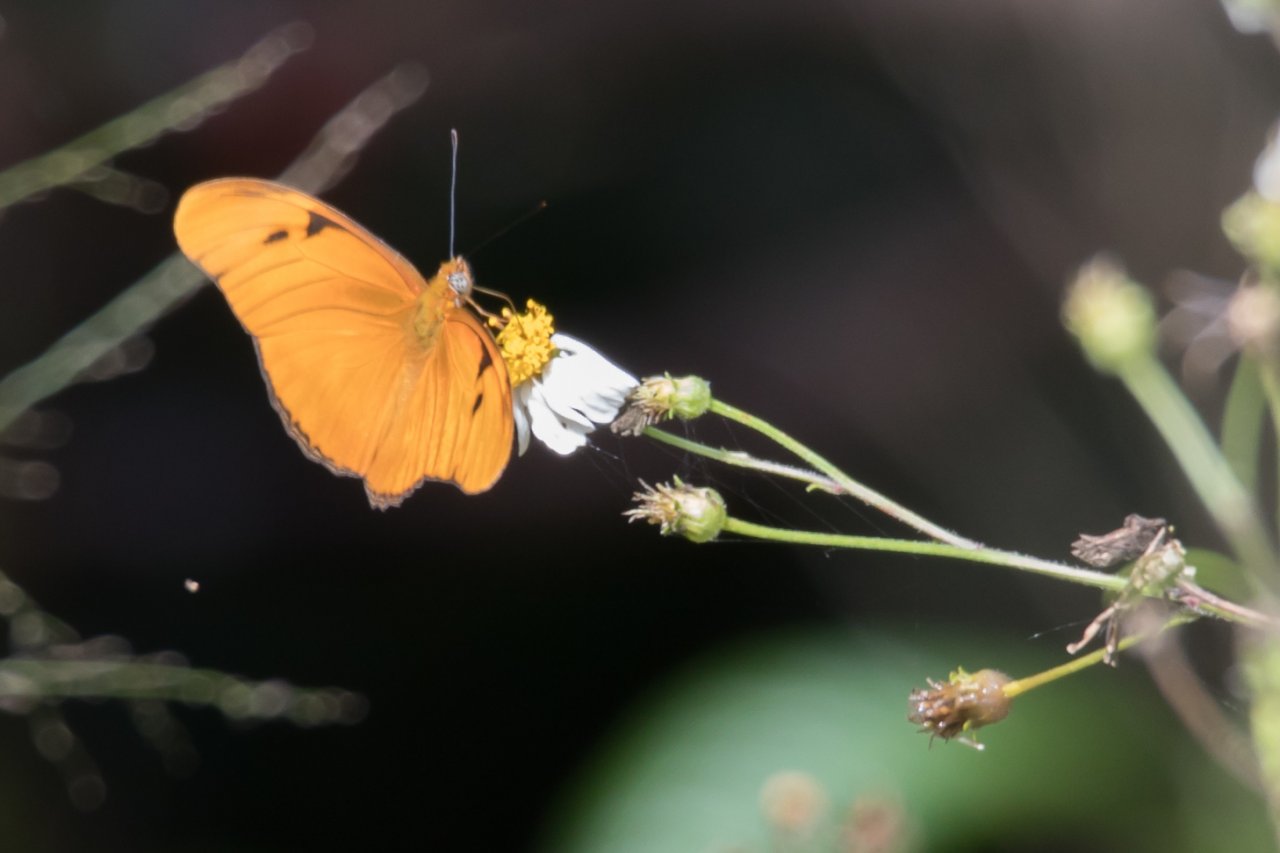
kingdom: Animalia
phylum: Arthropoda
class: Insecta
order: Lepidoptera
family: Nymphalidae
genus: Dryas
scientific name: Dryas iulia
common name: Julia
